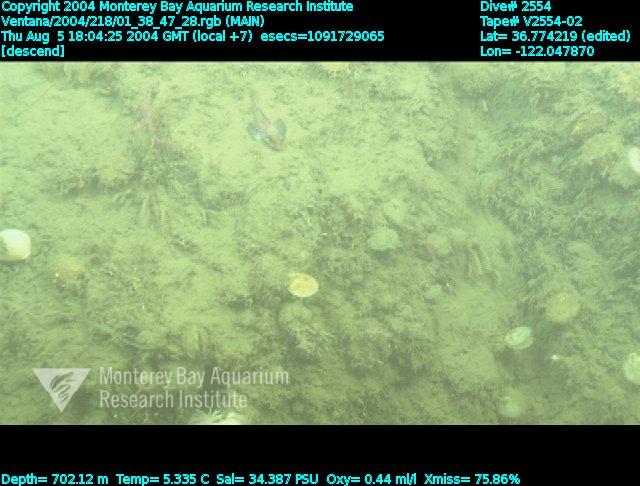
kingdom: Animalia
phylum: Porifera
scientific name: Porifera
